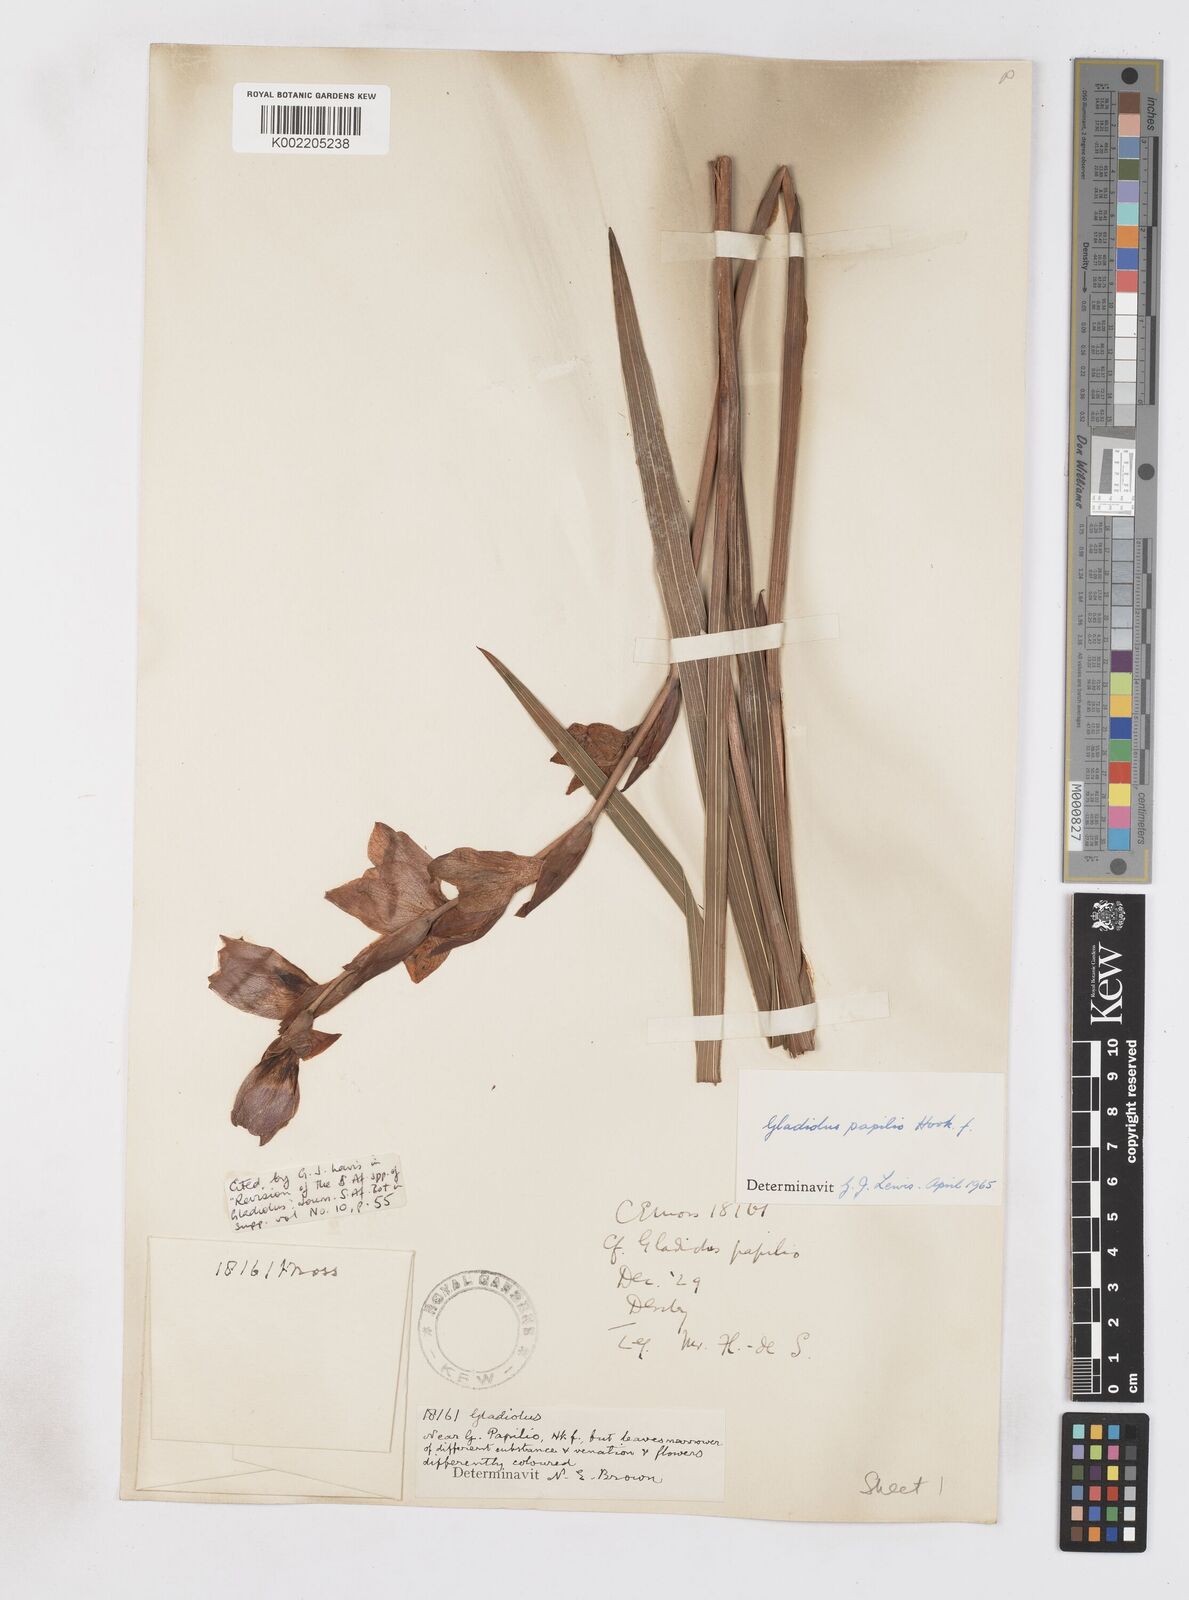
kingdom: Plantae
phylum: Tracheophyta
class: Liliopsida
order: Asparagales
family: Iridaceae
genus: Gladiolus
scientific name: Gladiolus papilio
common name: Goldblotch gladiolus
